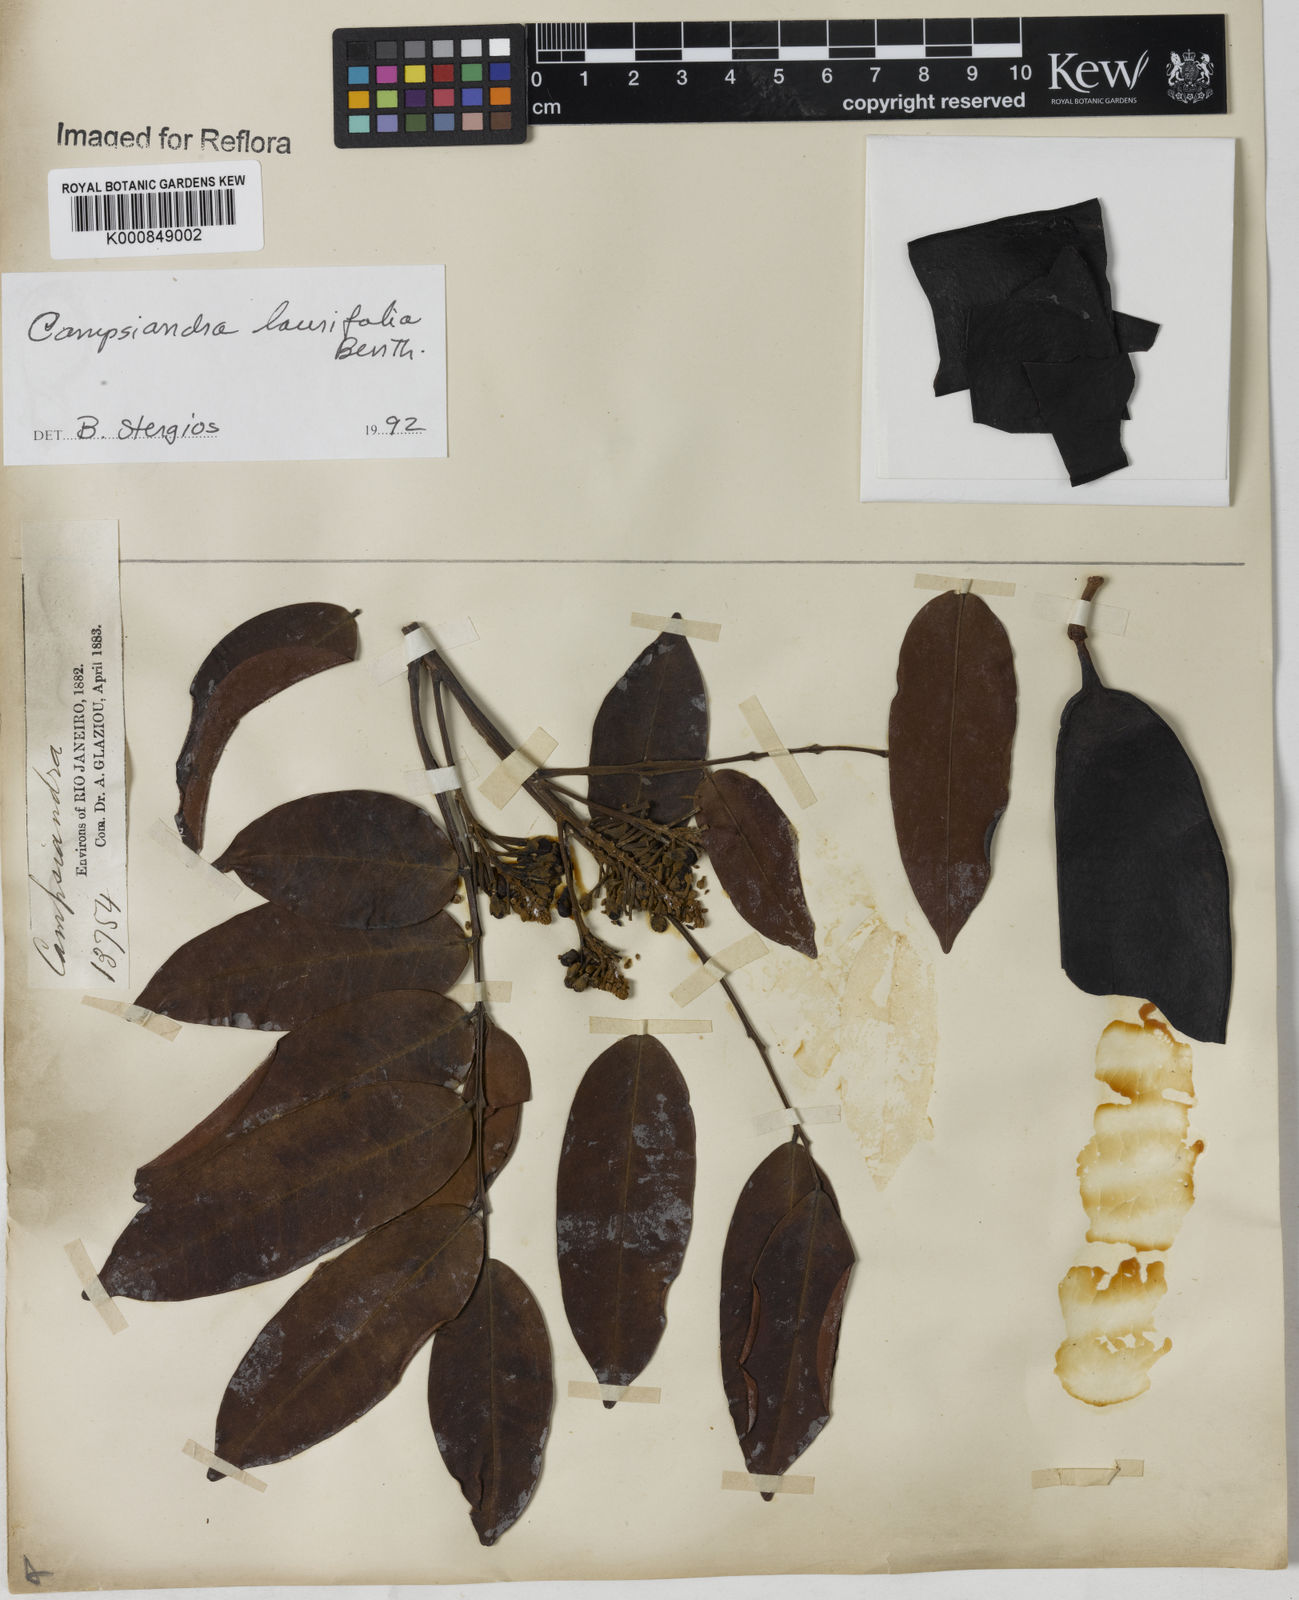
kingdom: Plantae
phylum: Tracheophyta
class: Magnoliopsida
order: Fabales
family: Fabaceae
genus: Campsiandra
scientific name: Campsiandra laurifolia
